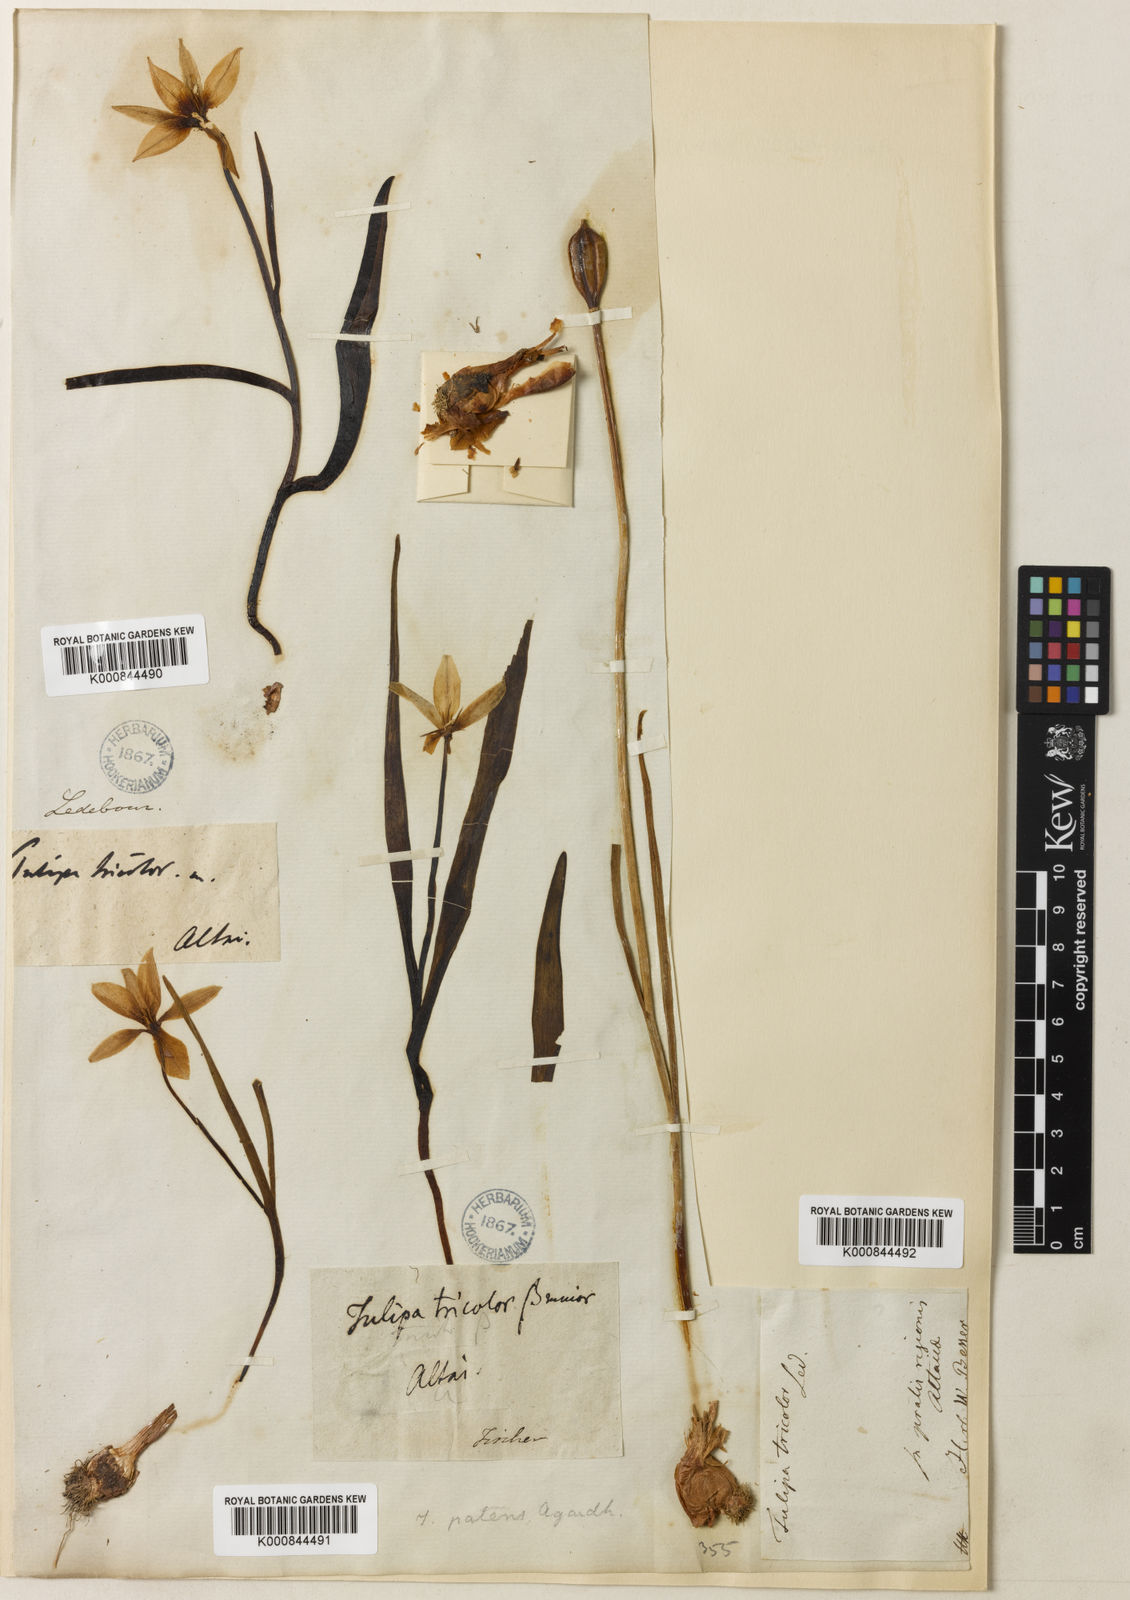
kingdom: Plantae
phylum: Tracheophyta
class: Liliopsida
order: Liliales
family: Liliaceae
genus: Tulipa
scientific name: Tulipa
